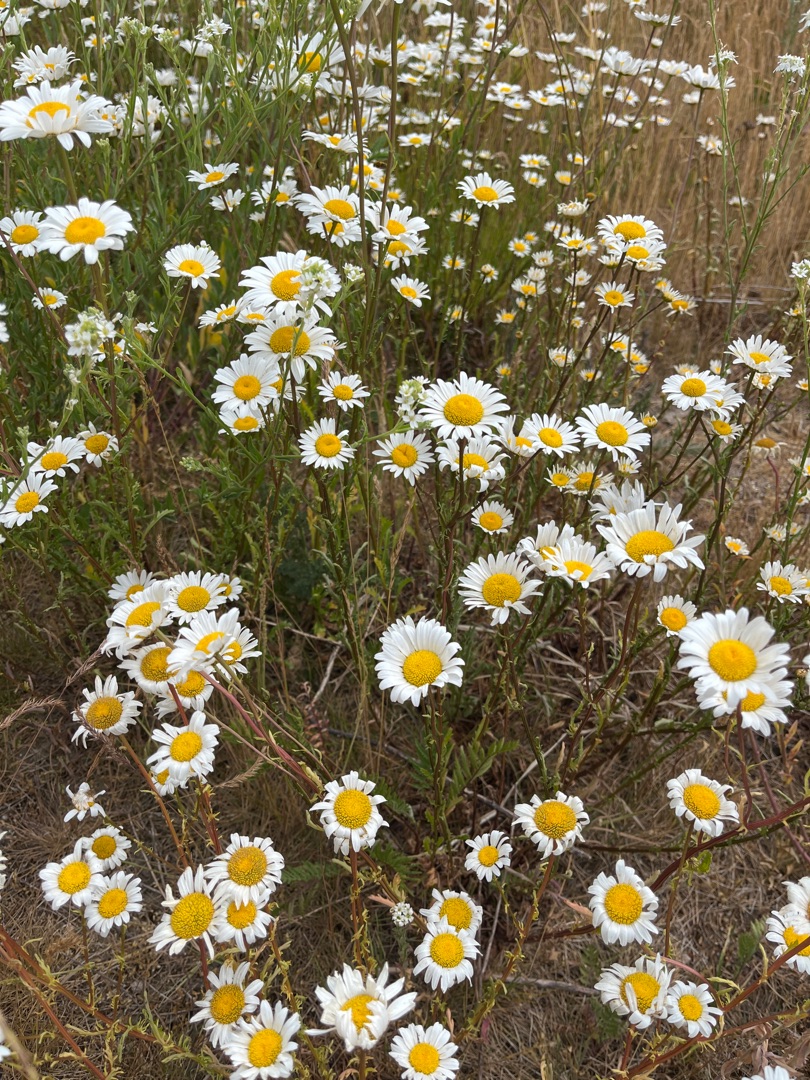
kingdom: Plantae
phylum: Tracheophyta
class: Magnoliopsida
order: Asterales
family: Asteraceae
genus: Leucanthemum
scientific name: Leucanthemum vulgare
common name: Hvid okseøje
